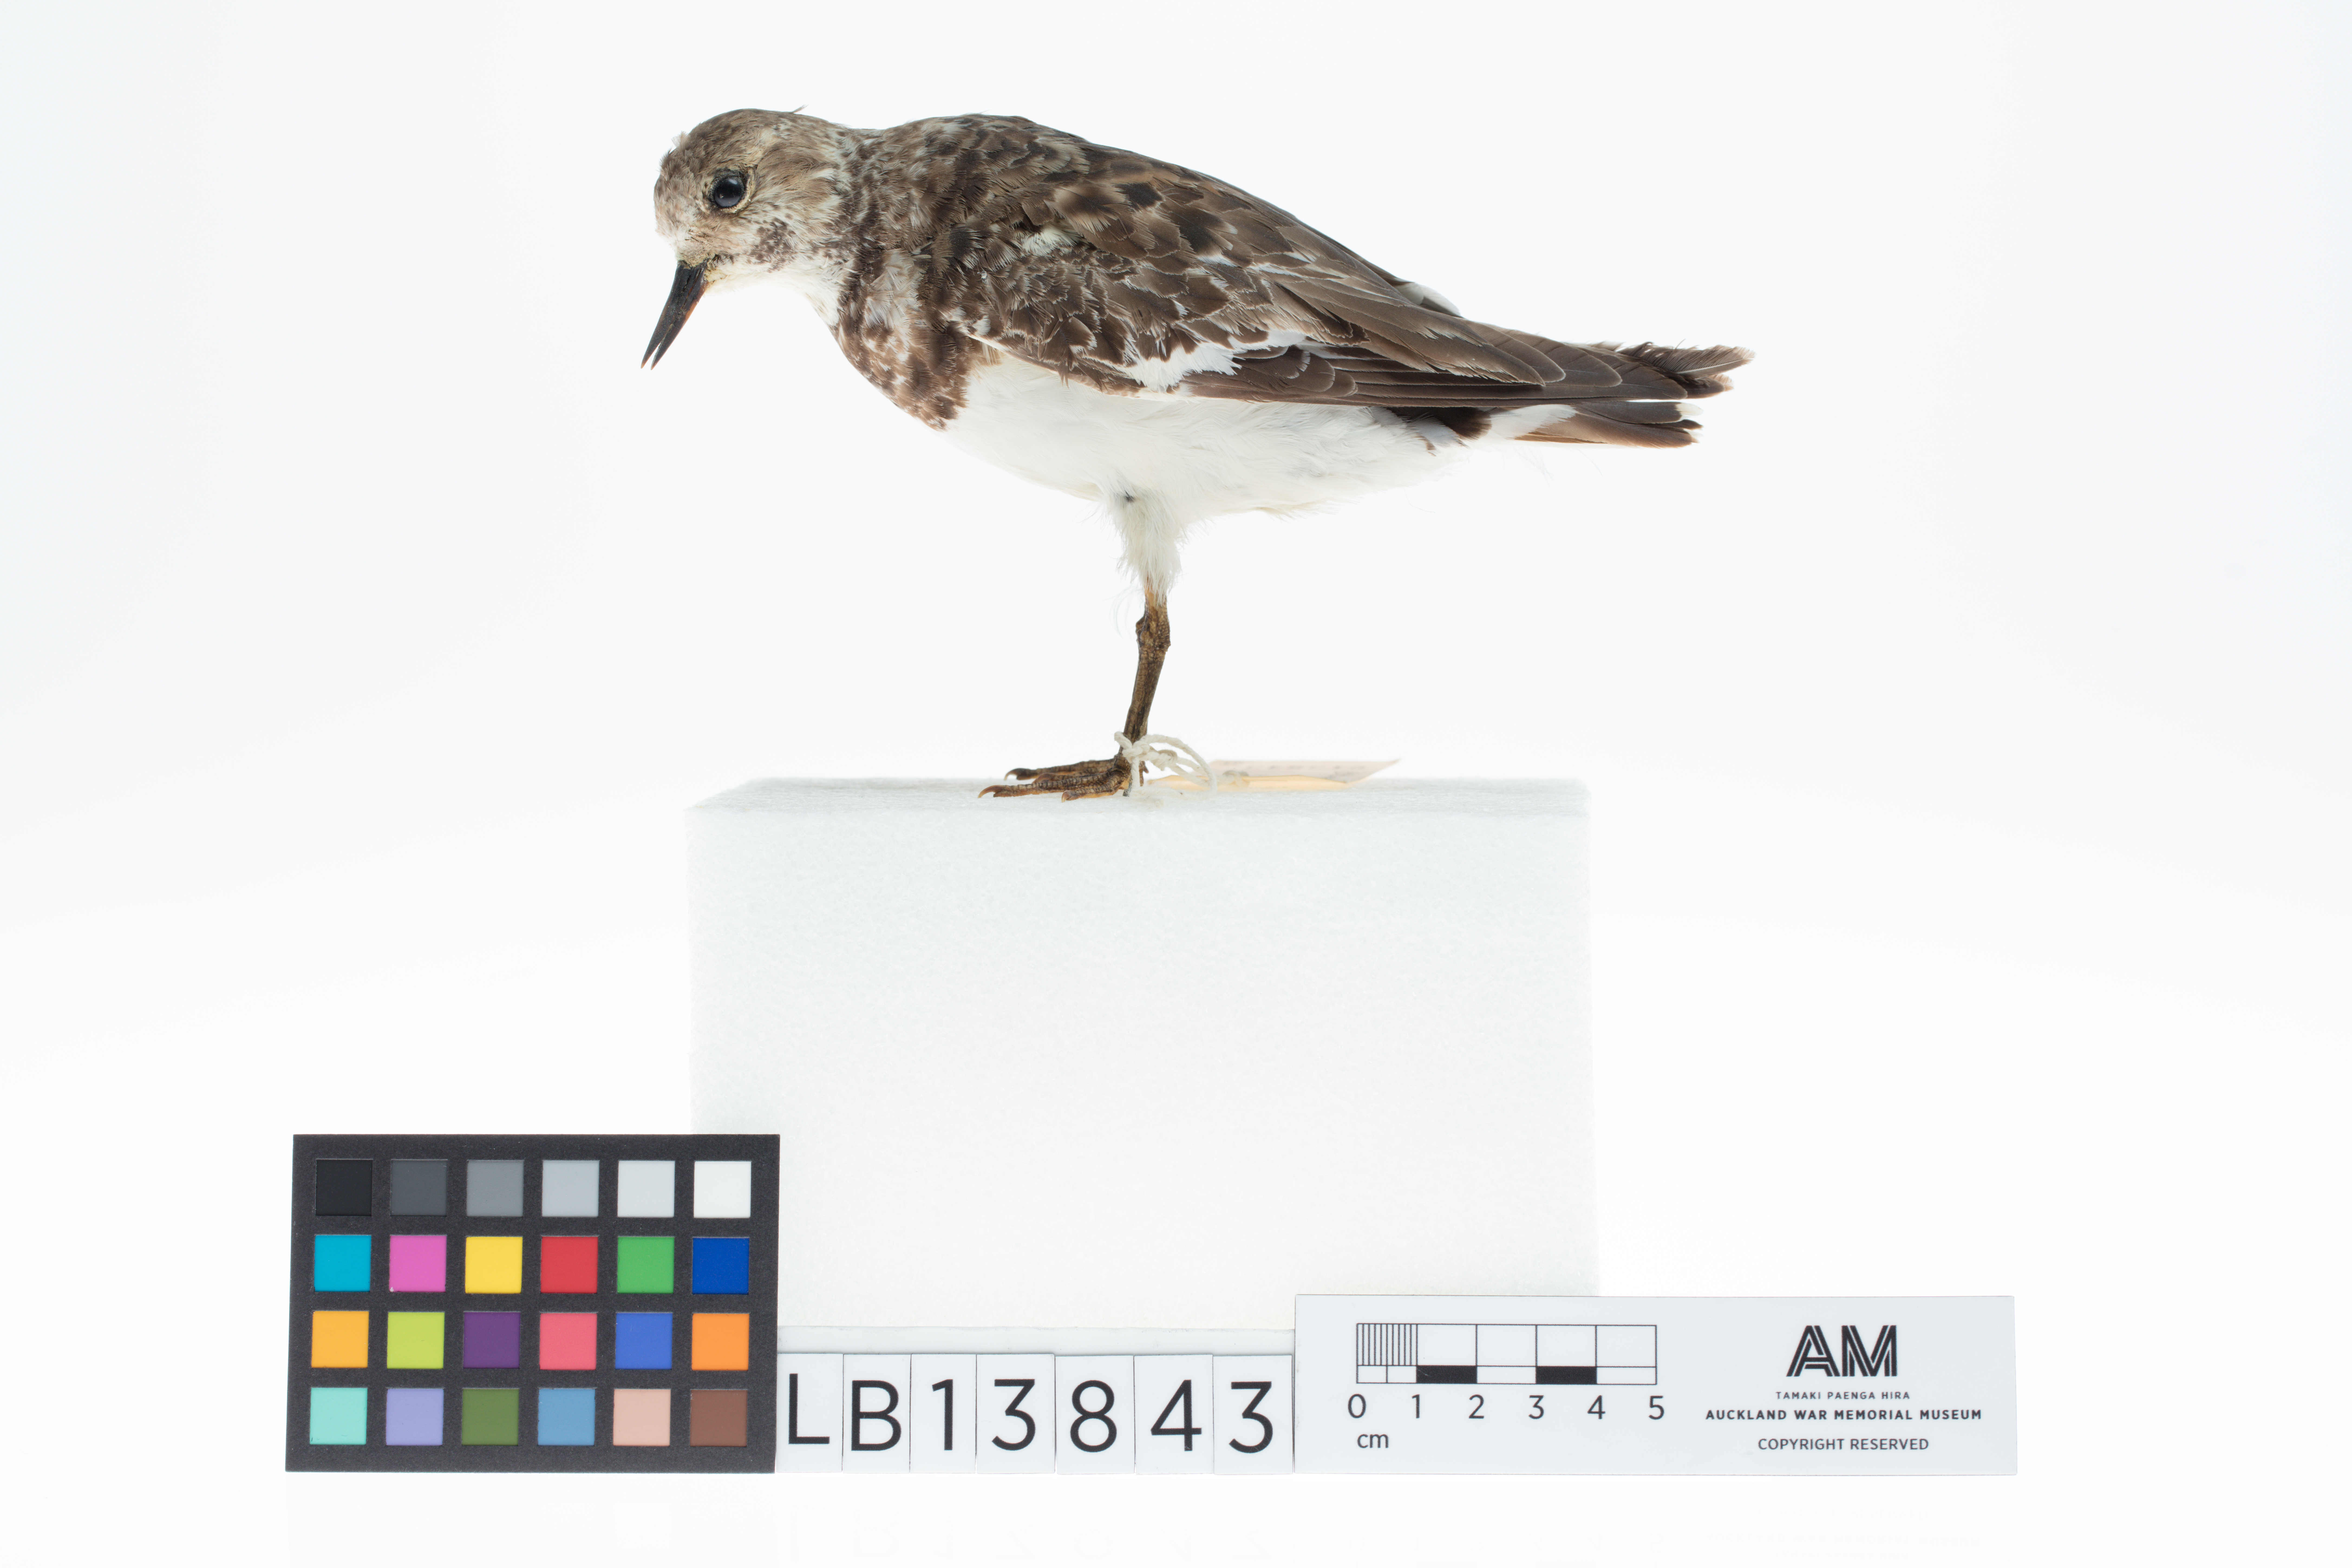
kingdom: Animalia
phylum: Chordata
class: Aves
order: Charadriiformes
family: Scolopacidae
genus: Arenaria
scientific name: Arenaria interpres
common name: Ruddy turnstone
